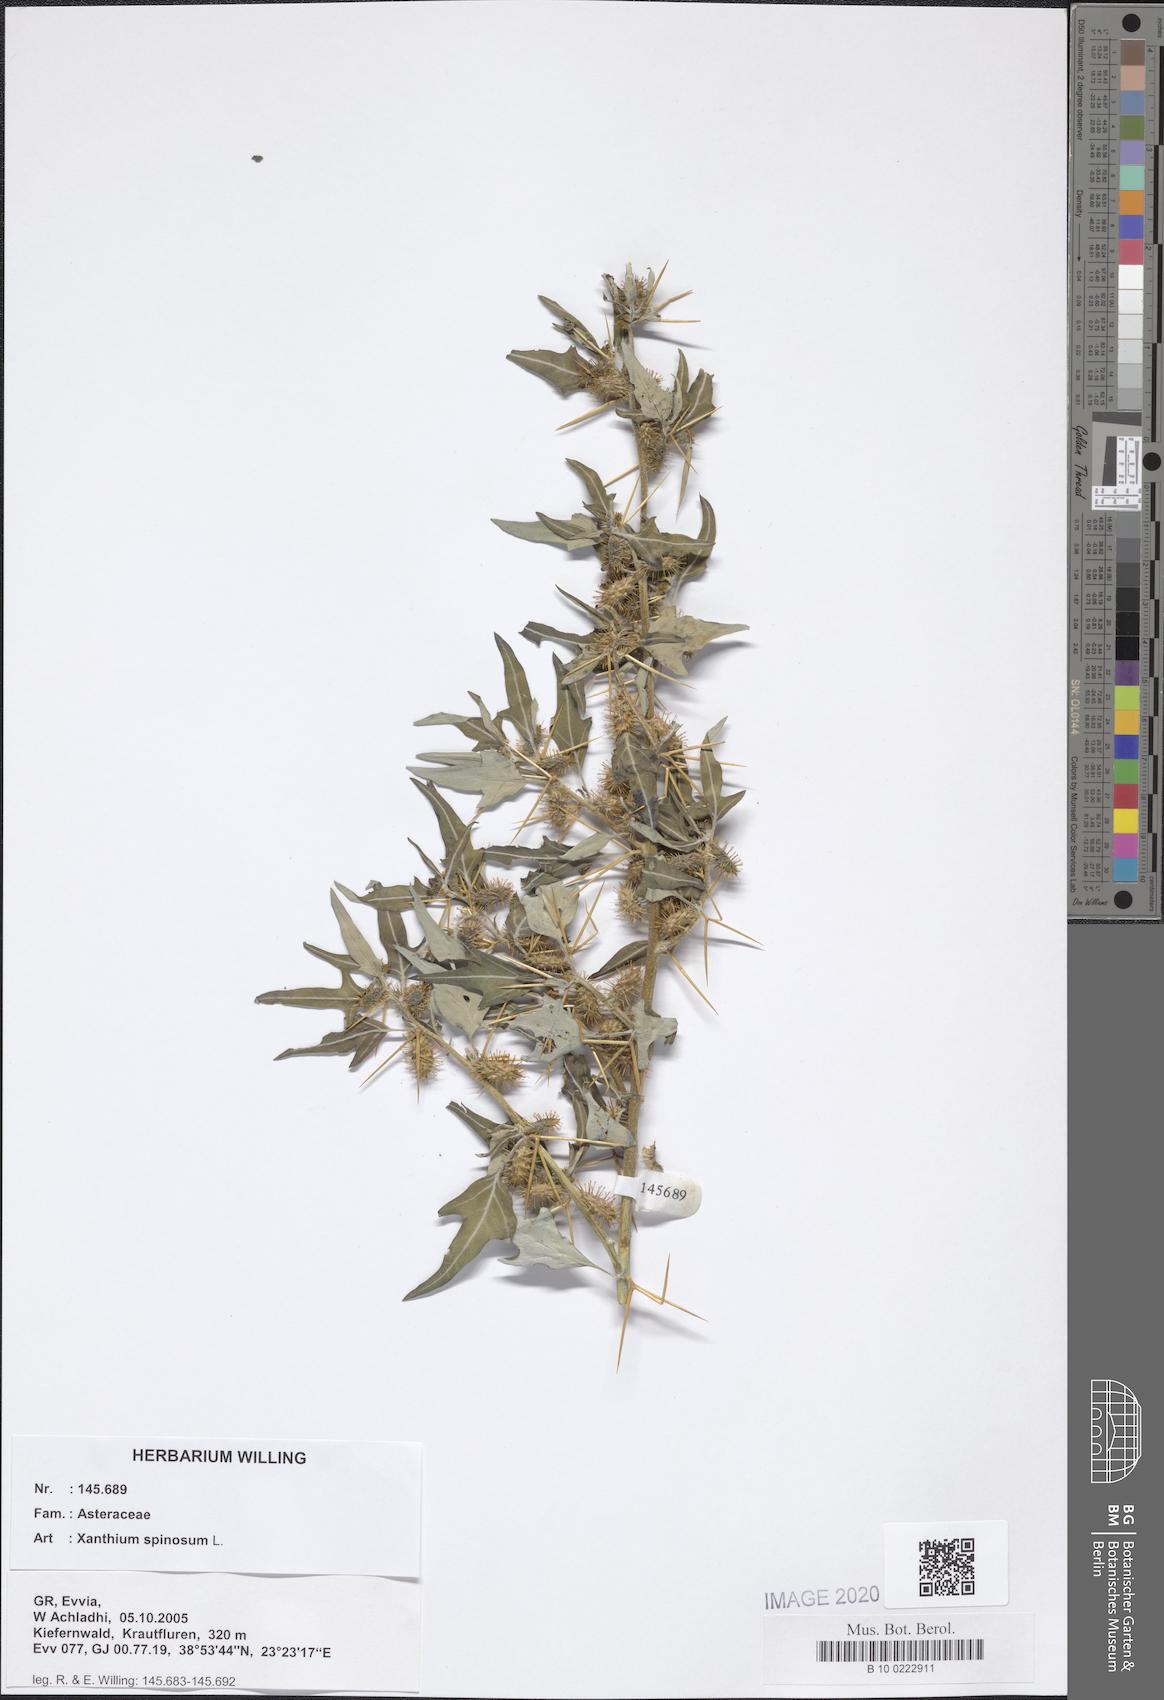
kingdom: Plantae
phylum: Tracheophyta
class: Magnoliopsida
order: Asterales
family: Asteraceae
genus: Xanthium
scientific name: Xanthium spinosum
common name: Spiny cocklebur
